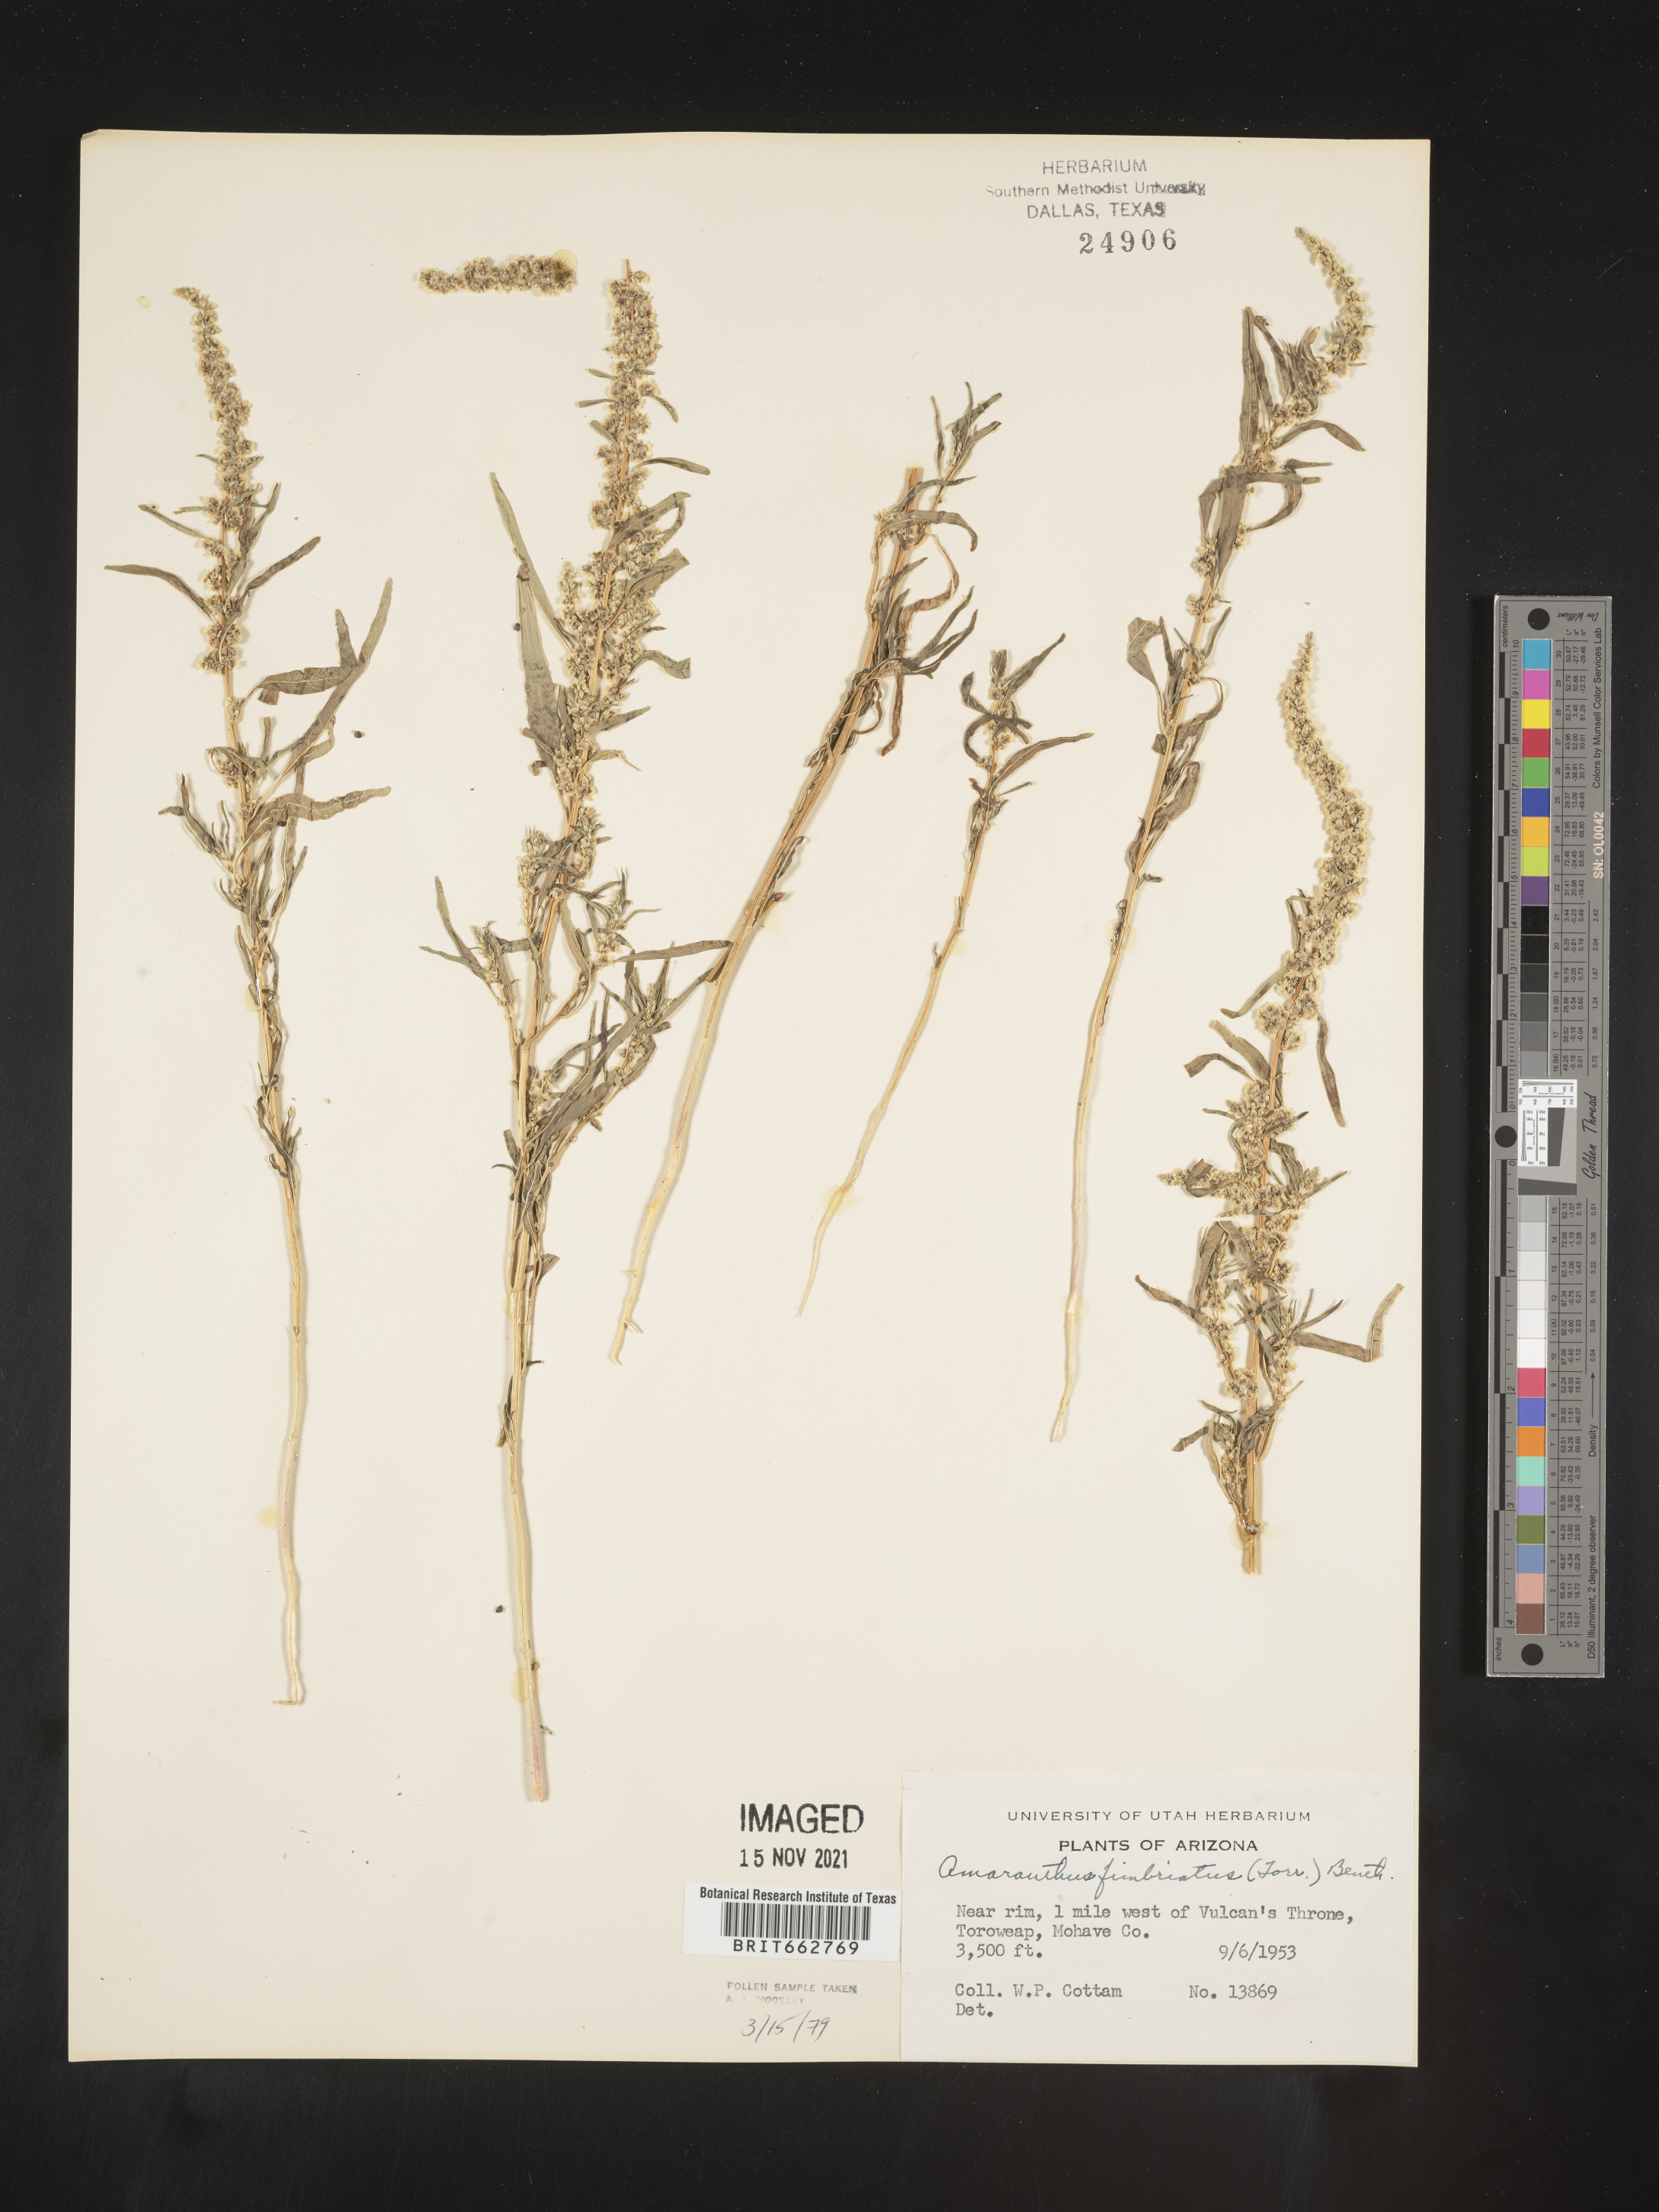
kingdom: Plantae
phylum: Tracheophyta
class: Magnoliopsida
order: Caryophyllales
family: Amaranthaceae
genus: Amaranthus
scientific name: Amaranthus
